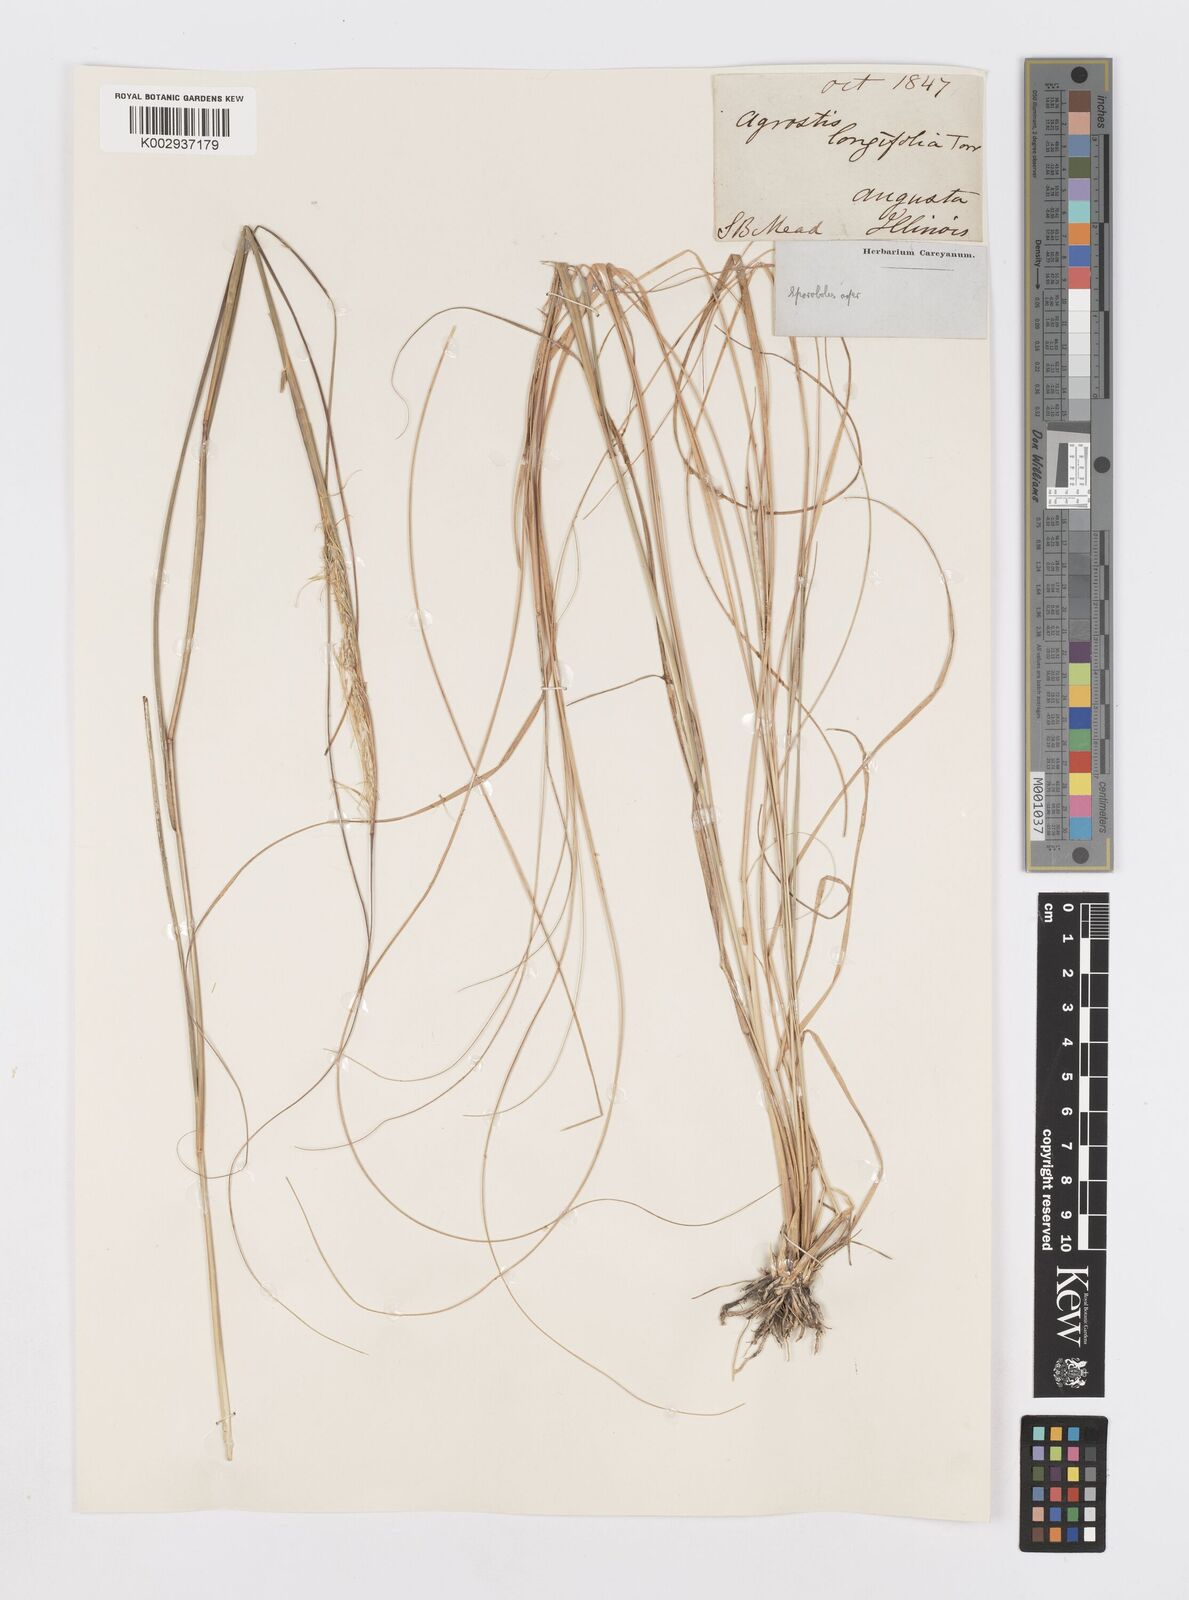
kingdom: Plantae
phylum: Tracheophyta
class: Liliopsida
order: Poales
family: Poaceae
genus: Sporobolus
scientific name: Sporobolus compositus
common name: Rough dropseed
